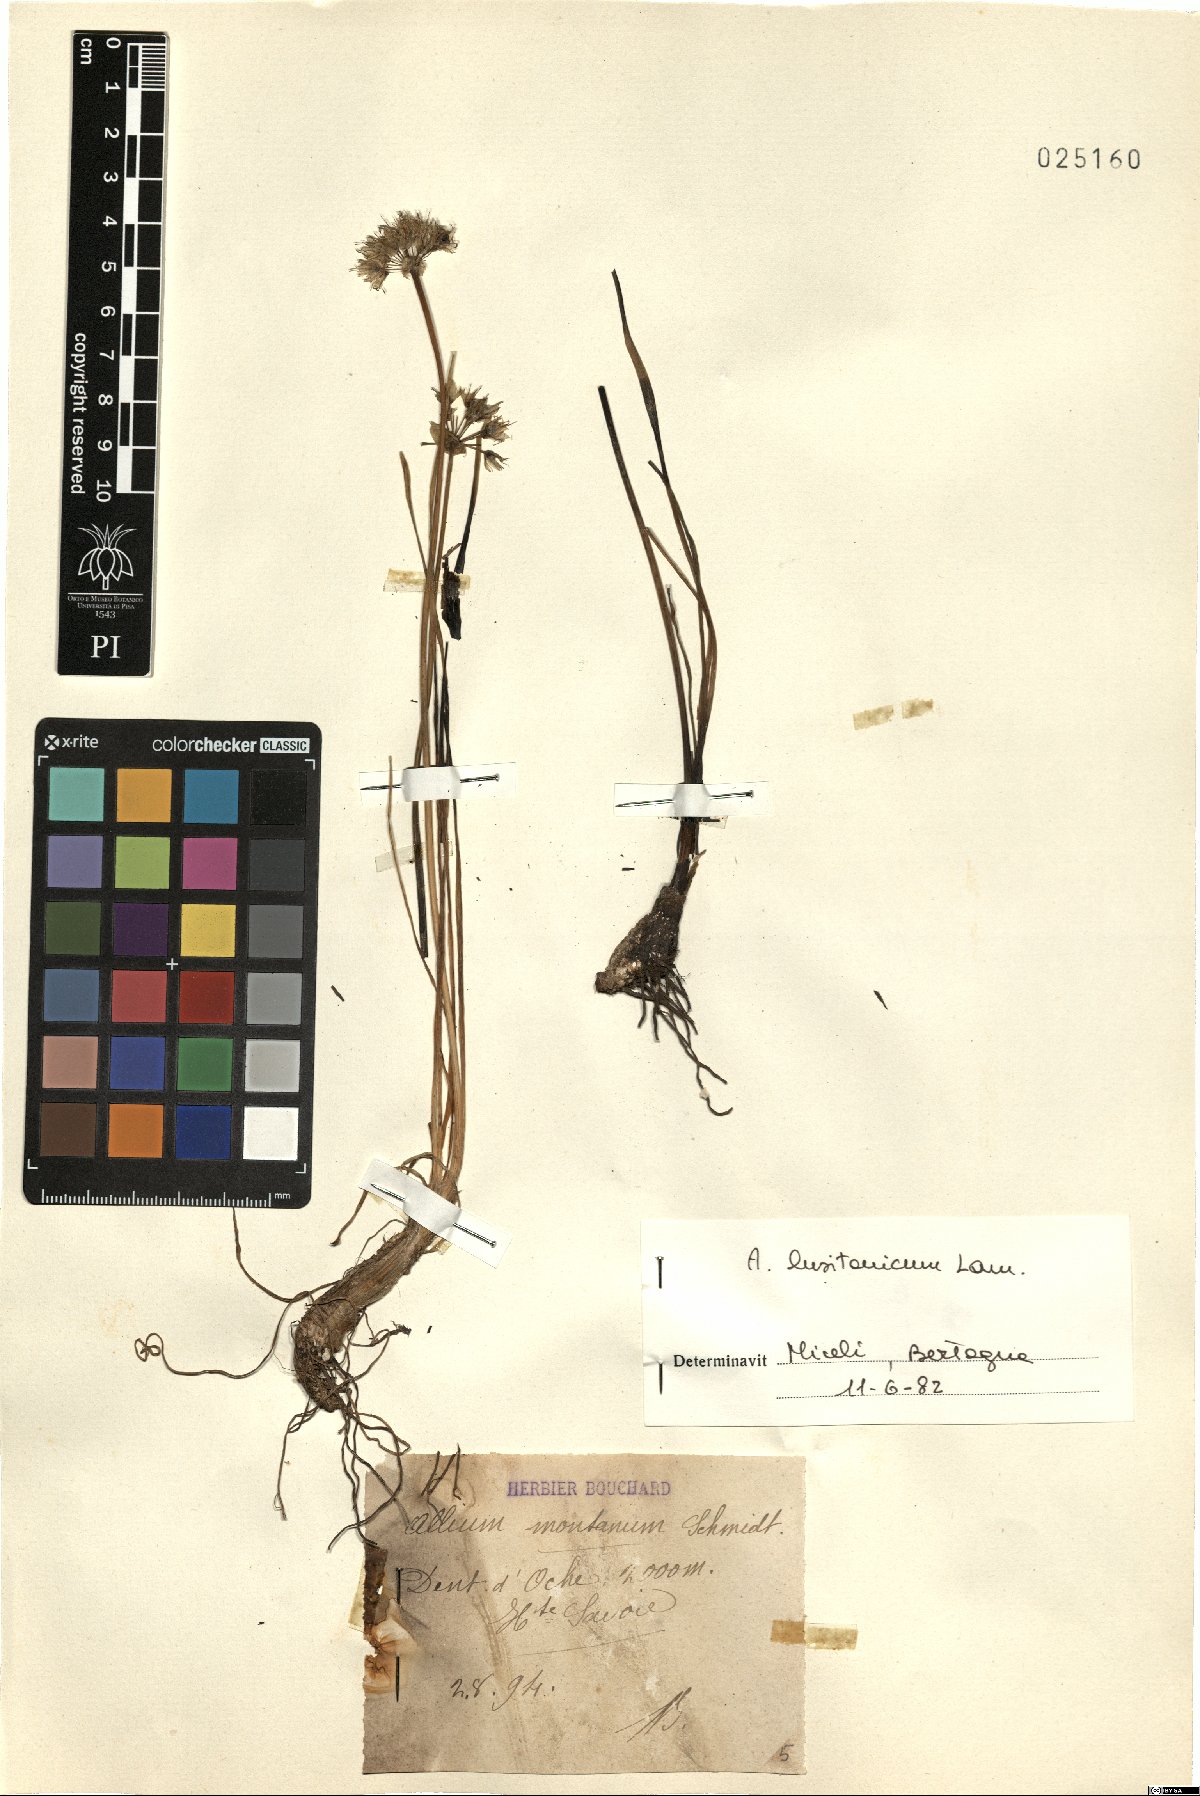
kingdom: Plantae
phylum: Tracheophyta
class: Liliopsida
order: Asparagales
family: Amaryllidaceae
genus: Allium
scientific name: Allium lusitanicum
